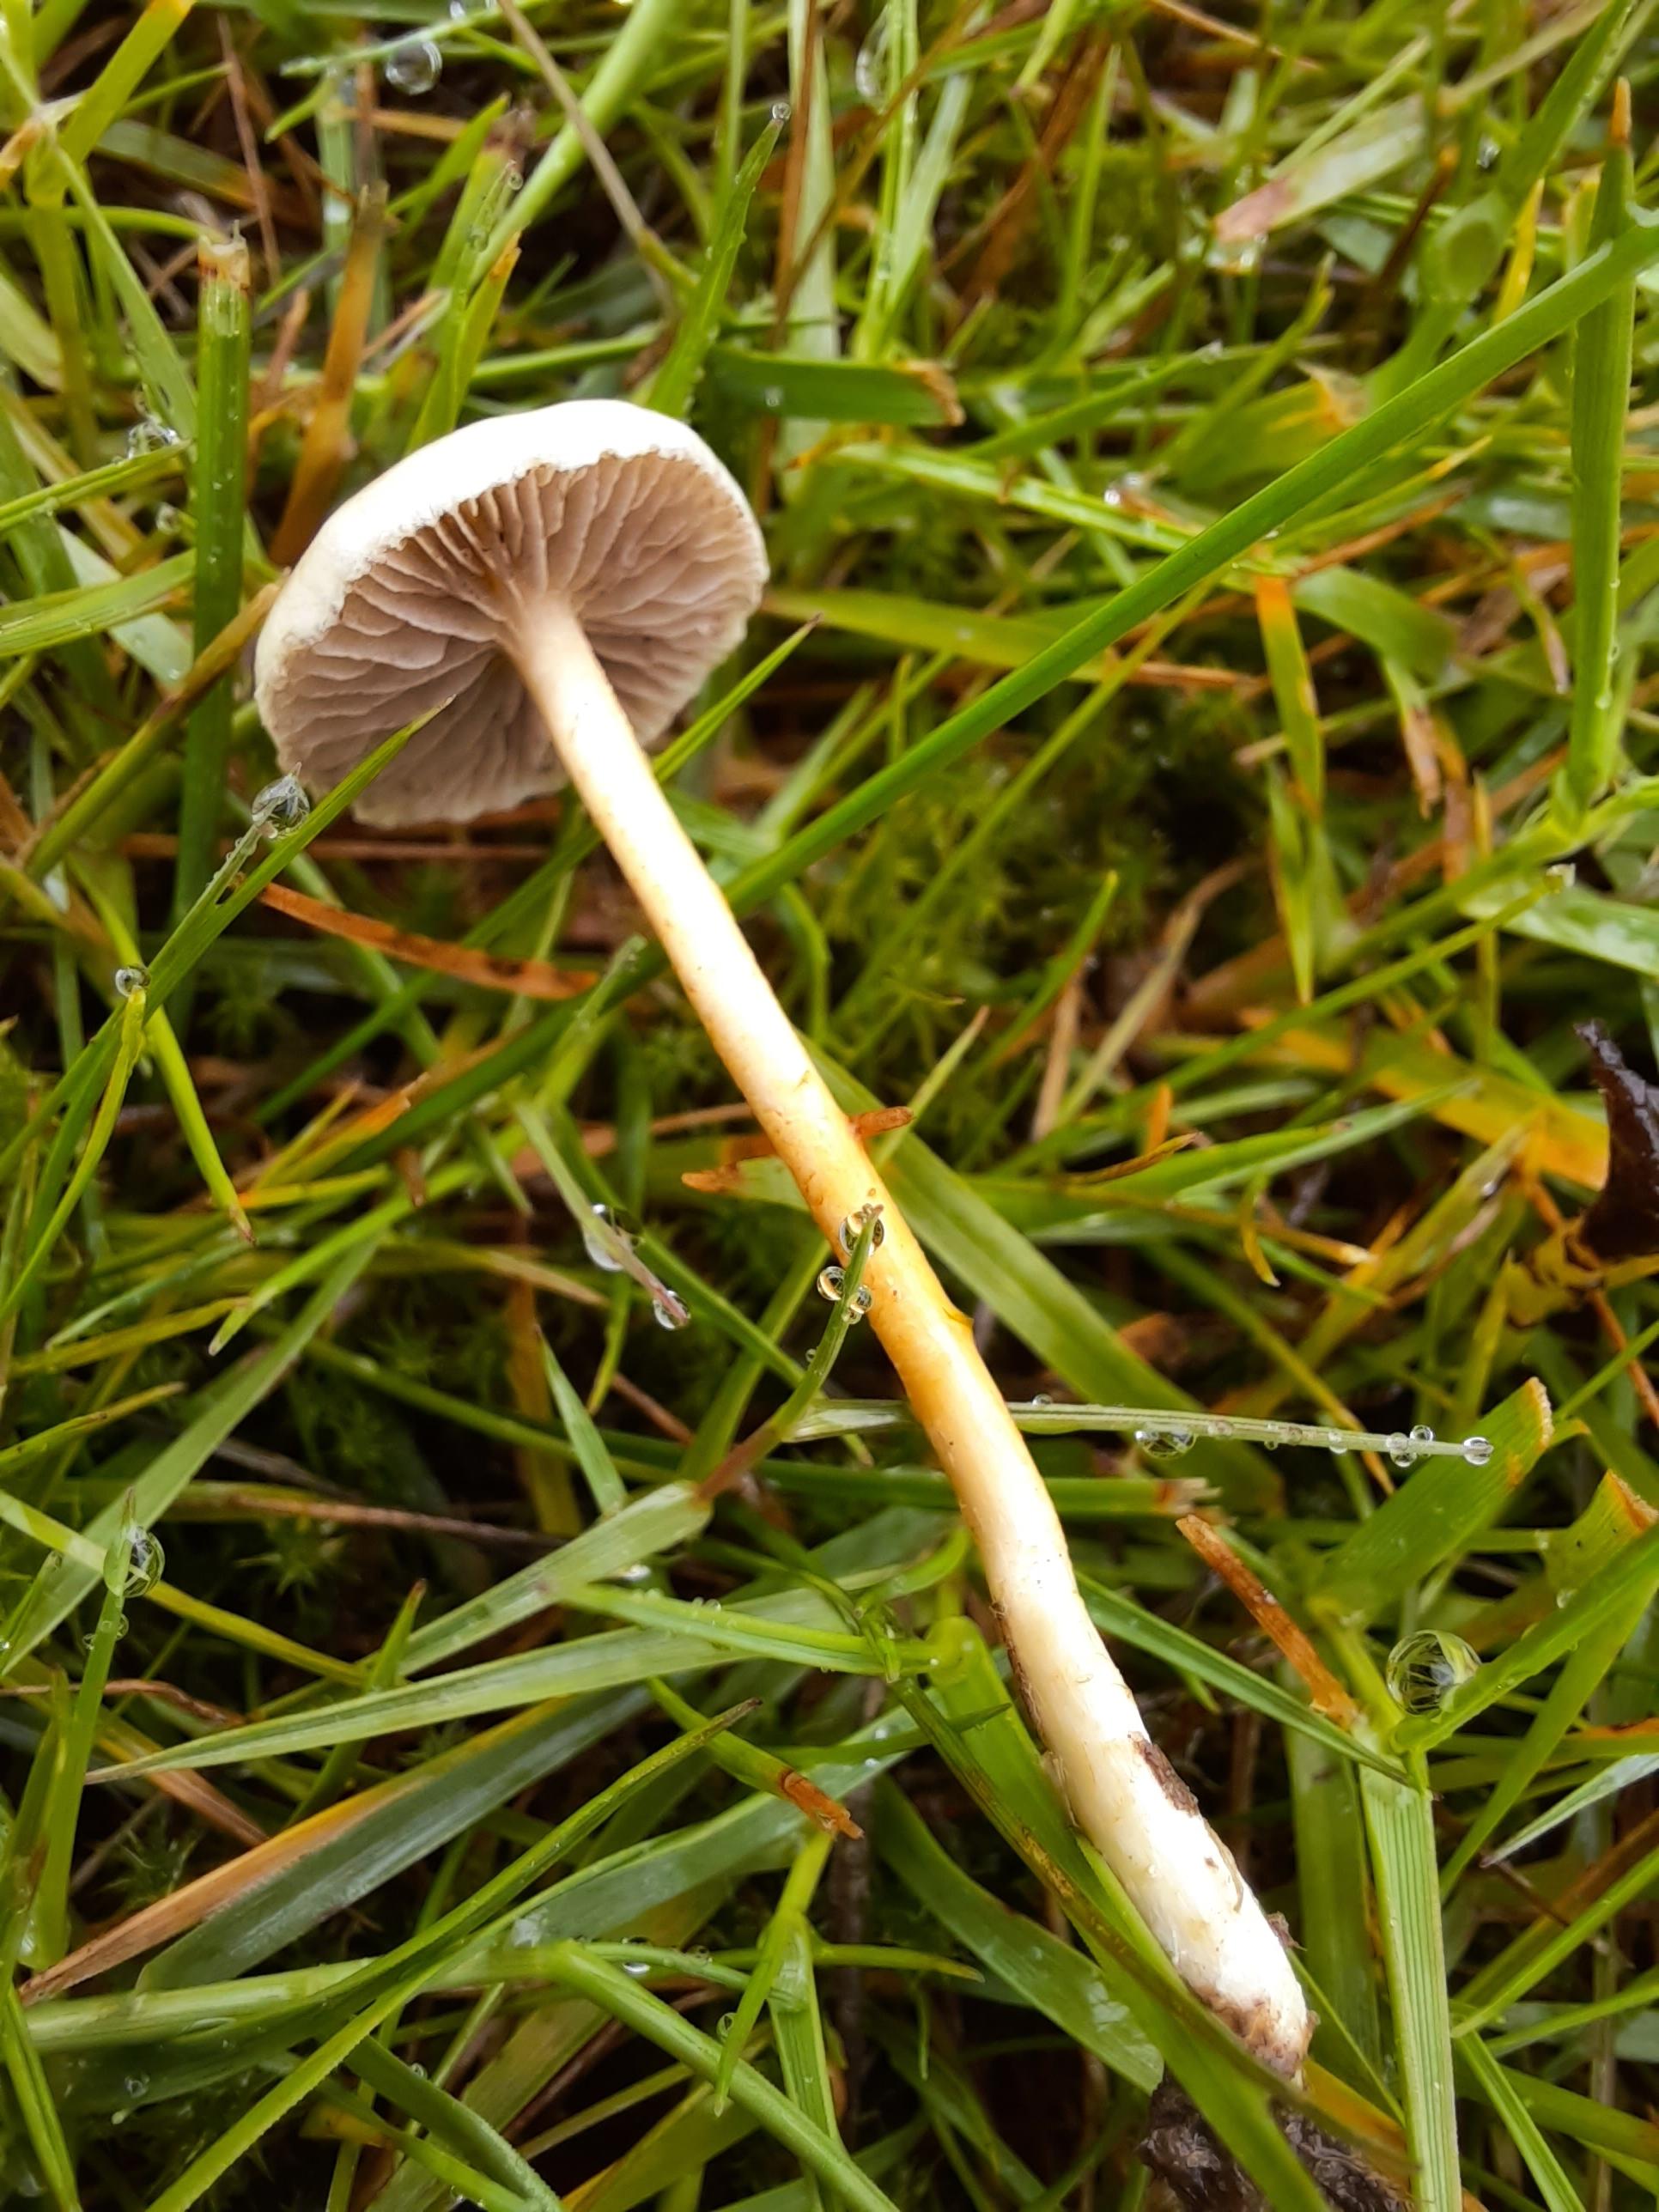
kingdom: Fungi
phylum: Basidiomycota
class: Agaricomycetes
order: Agaricales
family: Strophariaceae
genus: Agrocybe
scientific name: Agrocybe pediades
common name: almindelig agerhat
